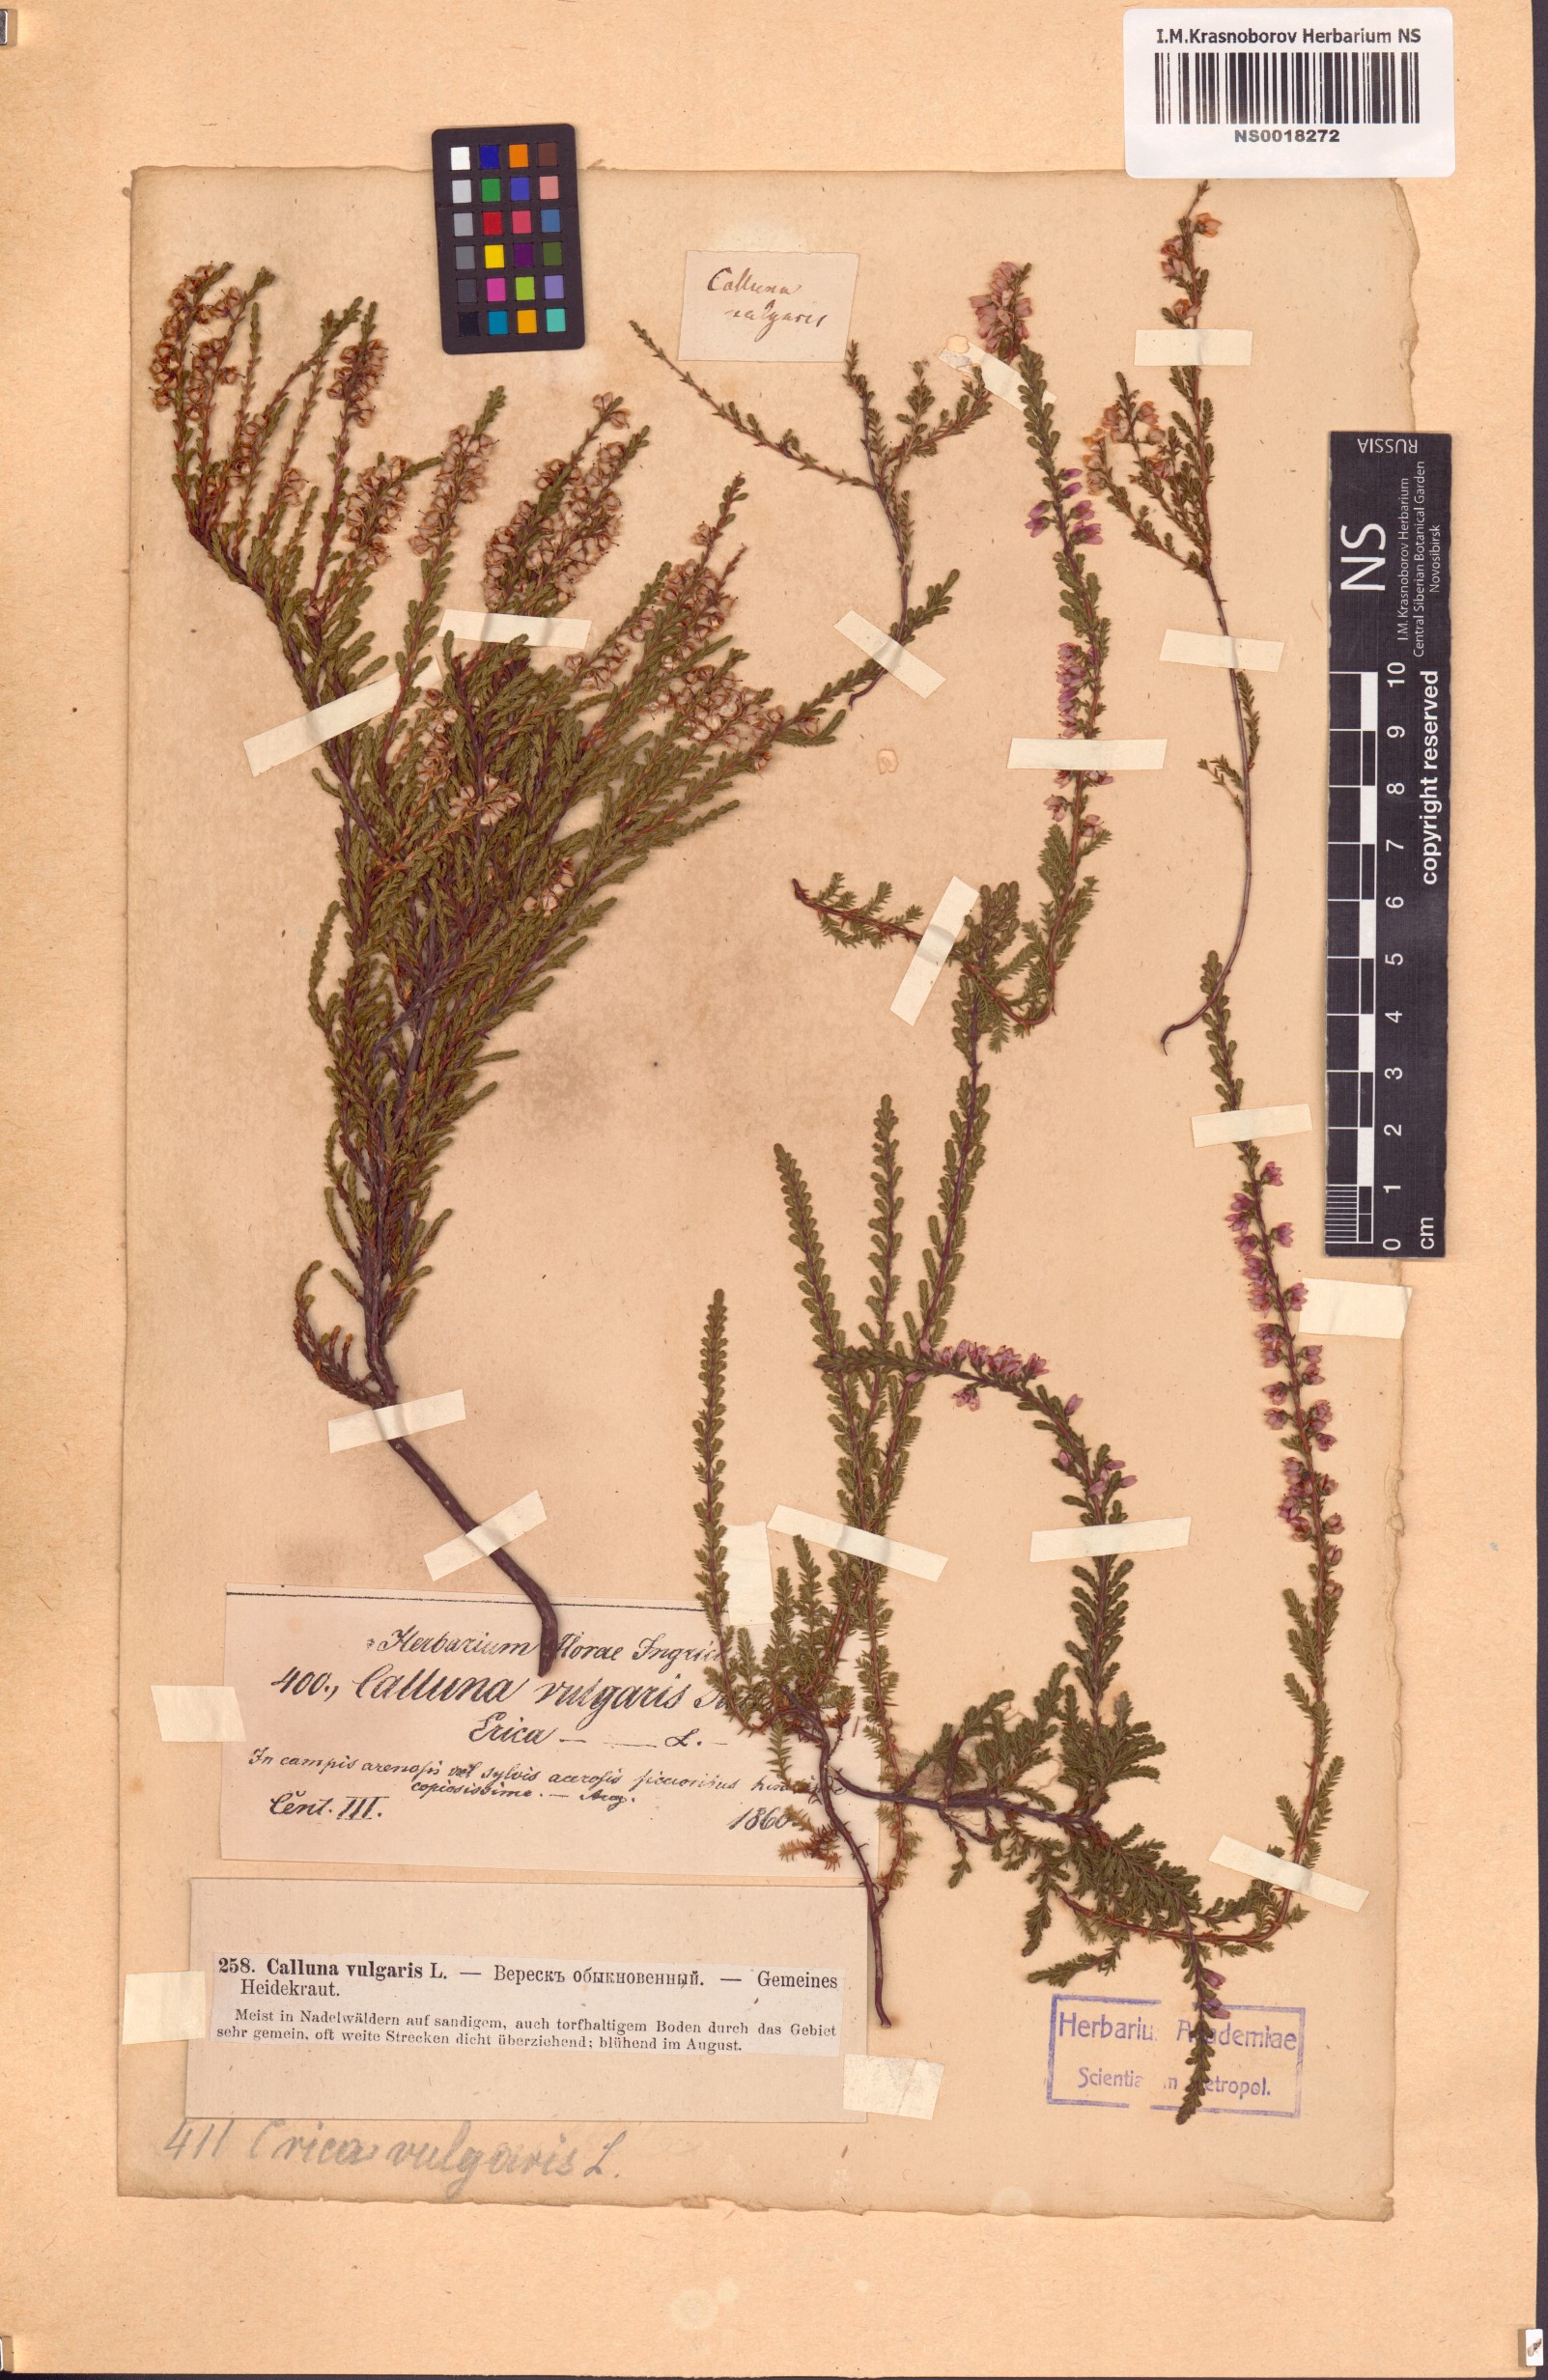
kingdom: Plantae
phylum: Tracheophyta
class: Magnoliopsida
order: Ericales
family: Ericaceae
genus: Calluna
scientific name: Calluna vulgaris
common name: Heather
